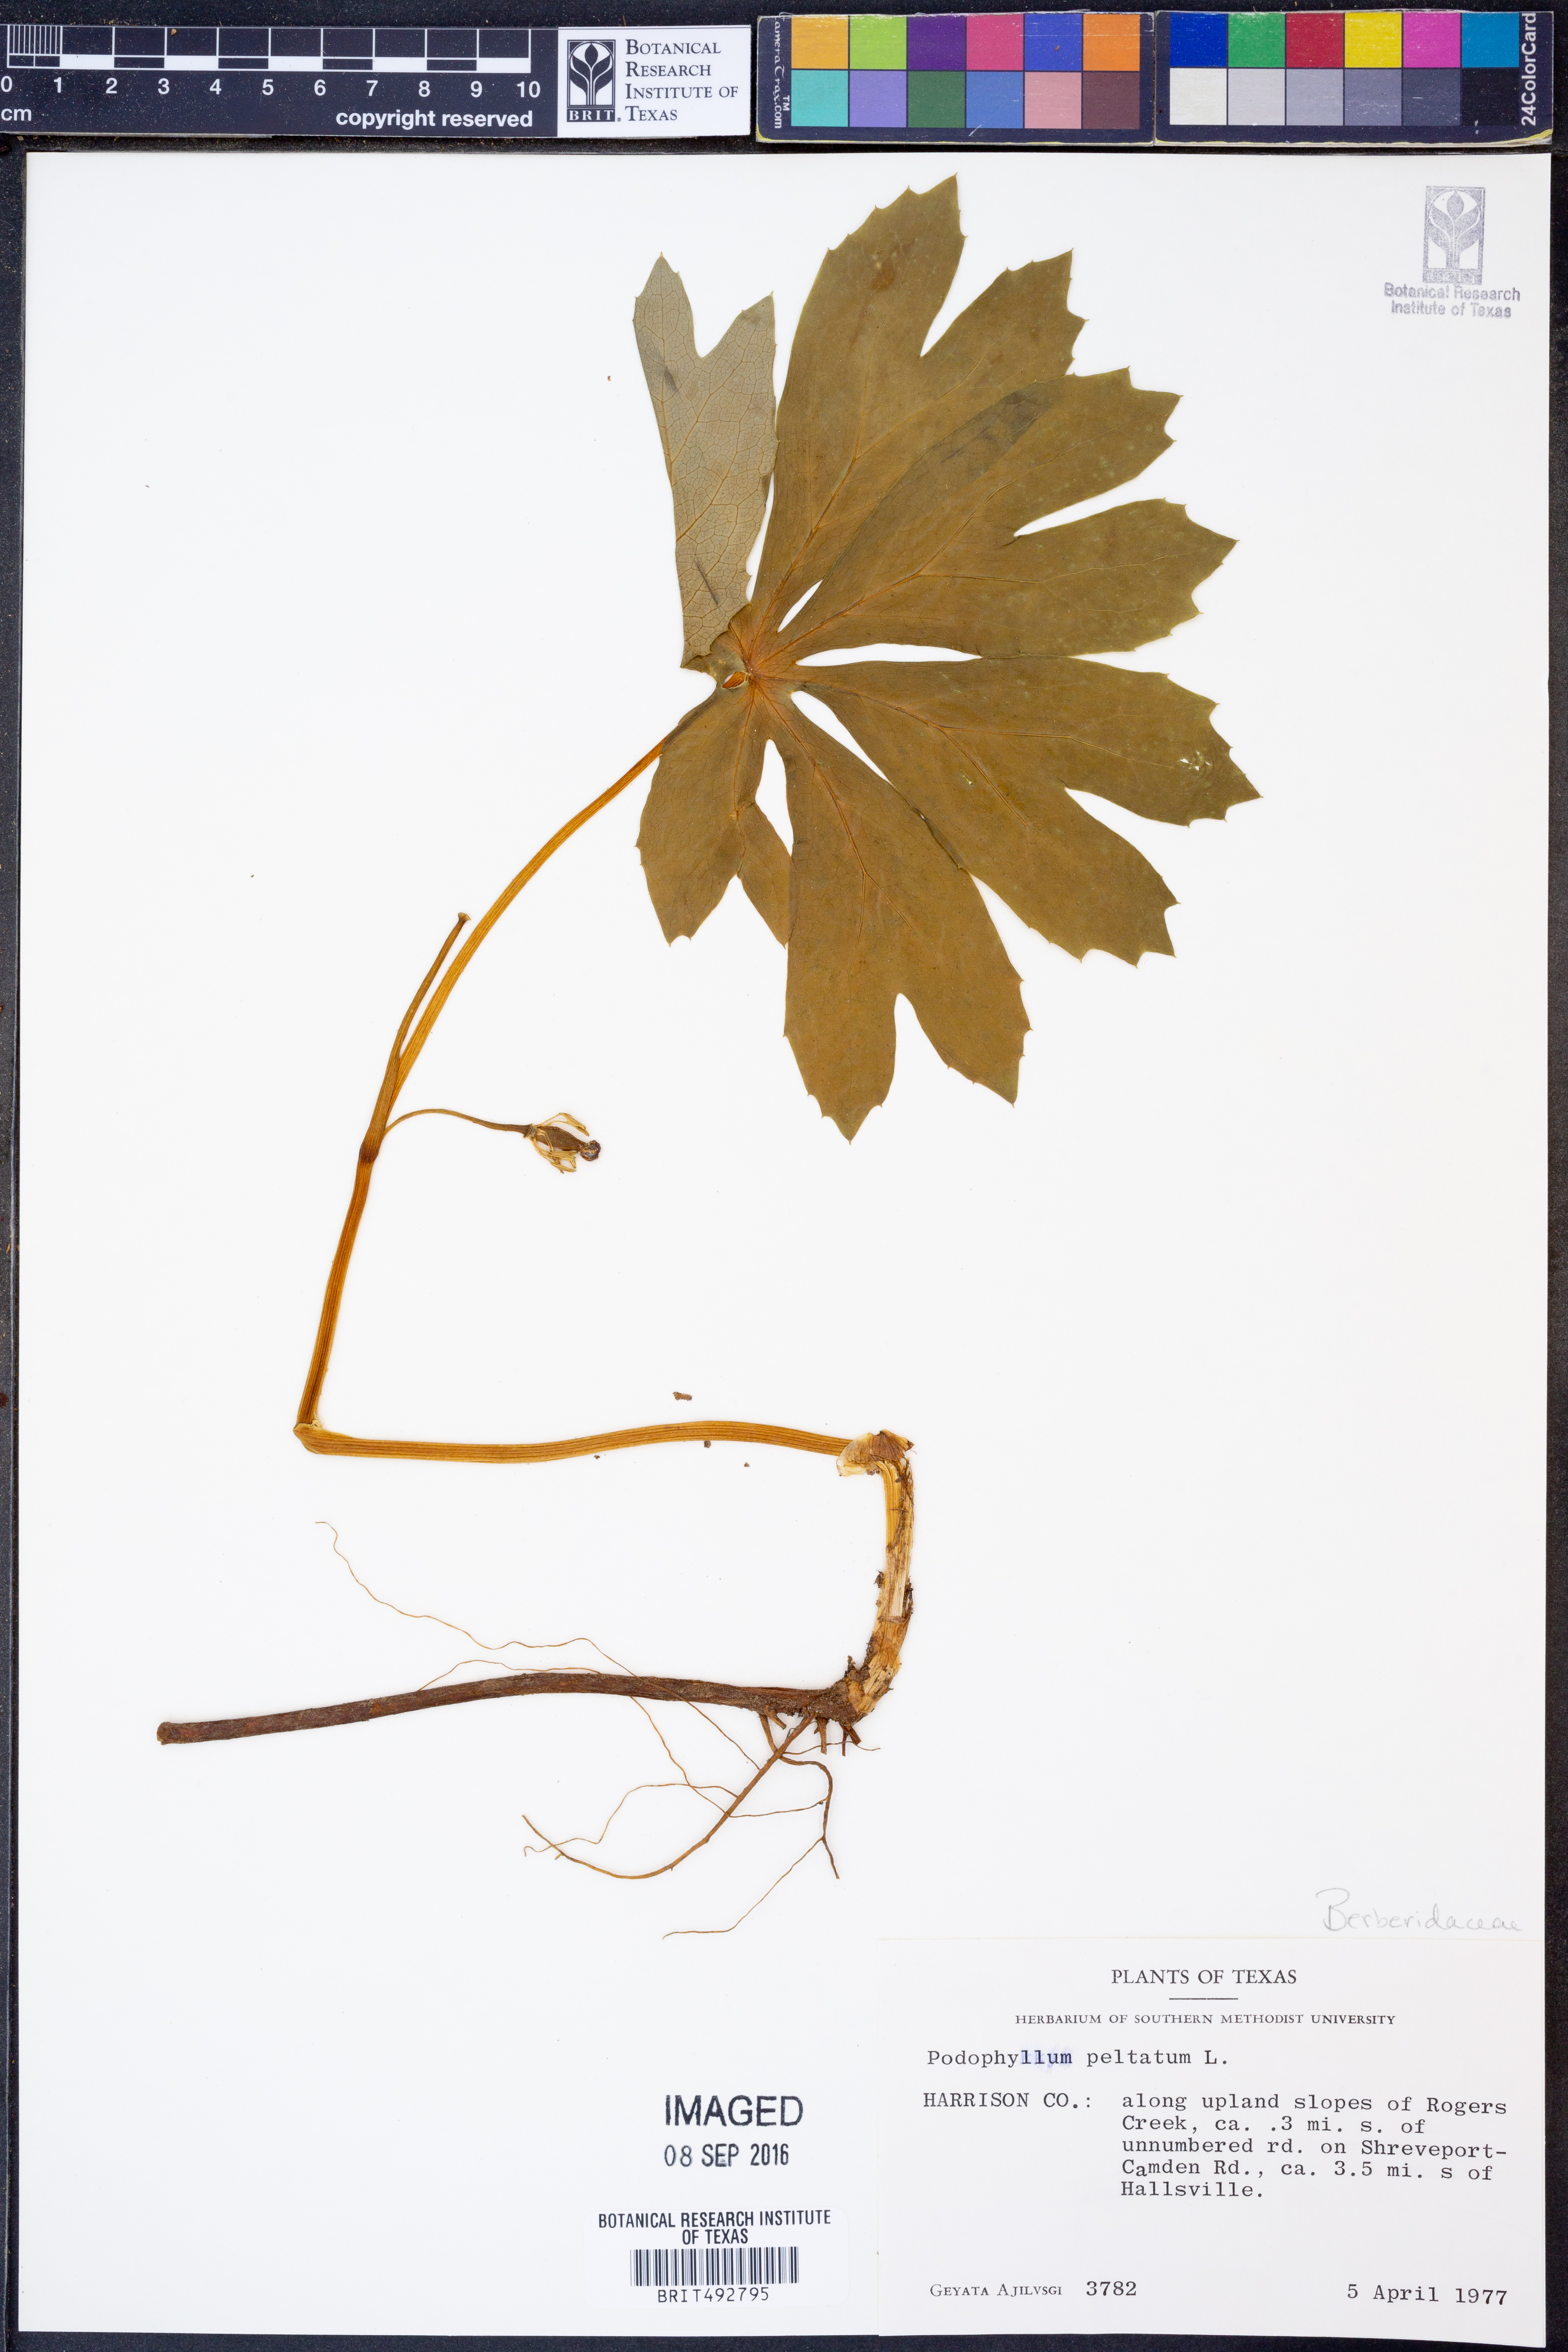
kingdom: Plantae
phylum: Tracheophyta
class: Magnoliopsida
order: Ranunculales
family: Berberidaceae
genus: Podophyllum
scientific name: Podophyllum peltatum
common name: Wild mandrake
